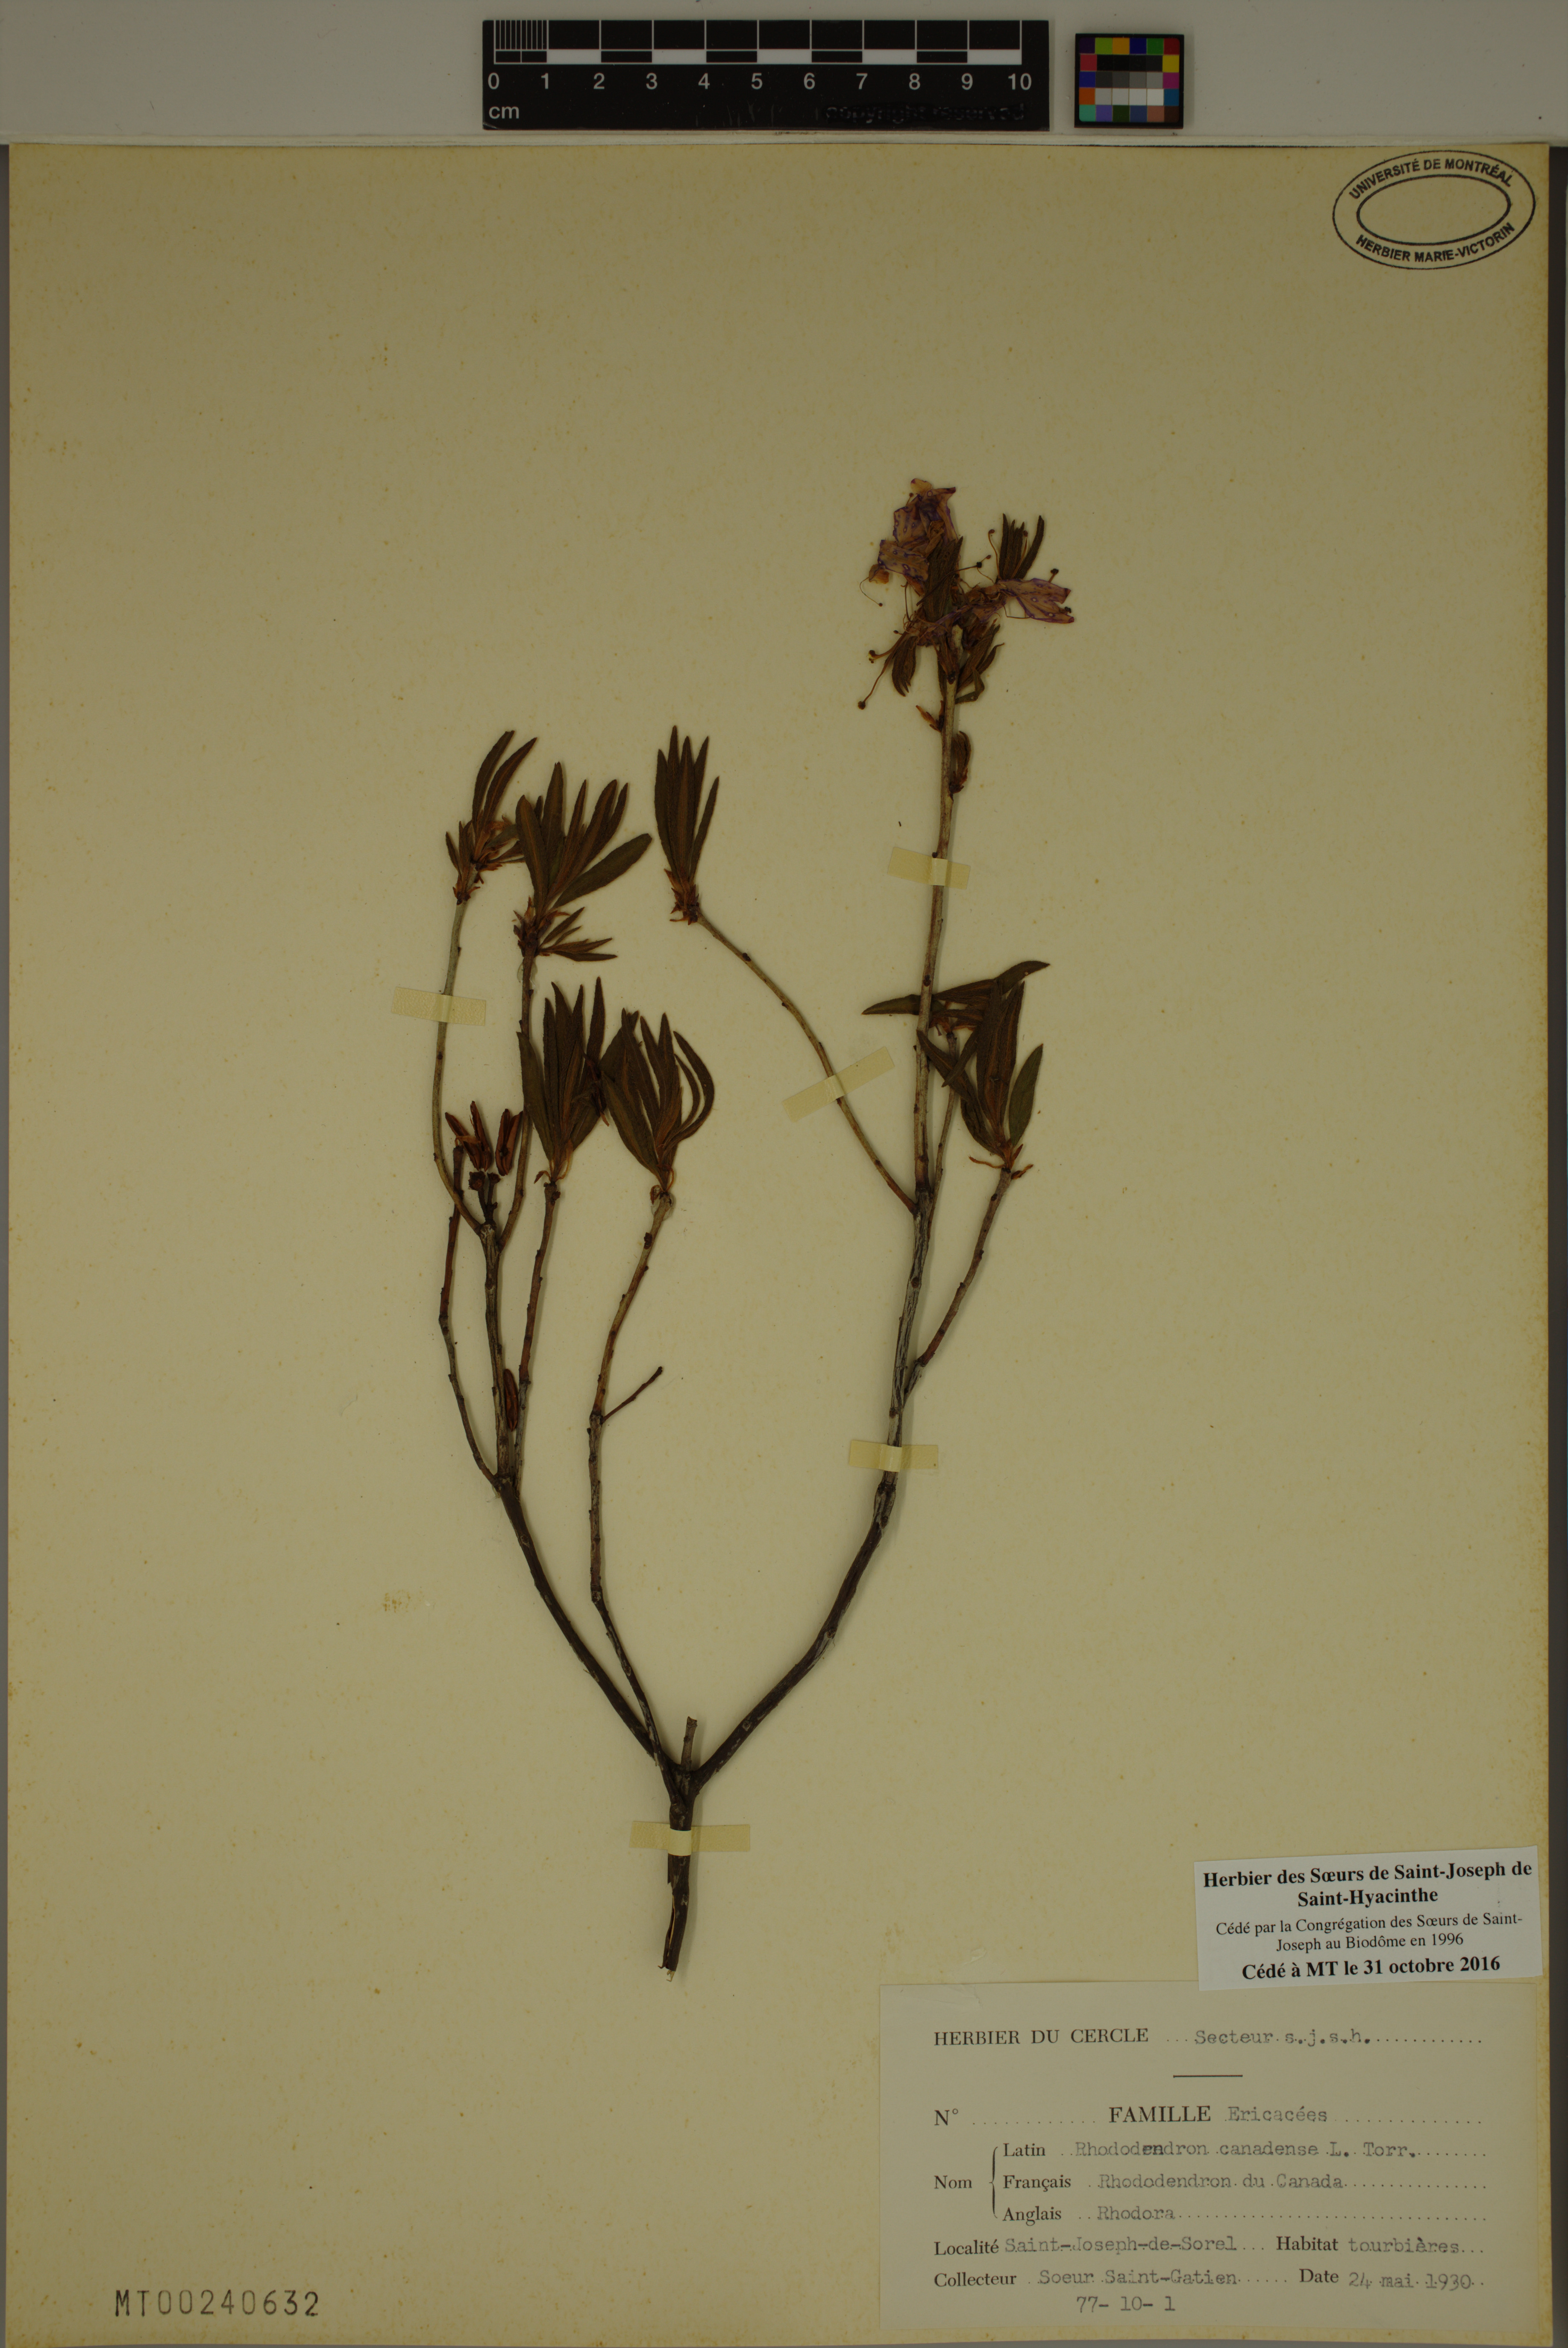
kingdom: Plantae
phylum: Tracheophyta
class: Magnoliopsida
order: Ericales
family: Ericaceae
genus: Rhododendron
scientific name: Rhododendron canadense
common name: Rhodora
